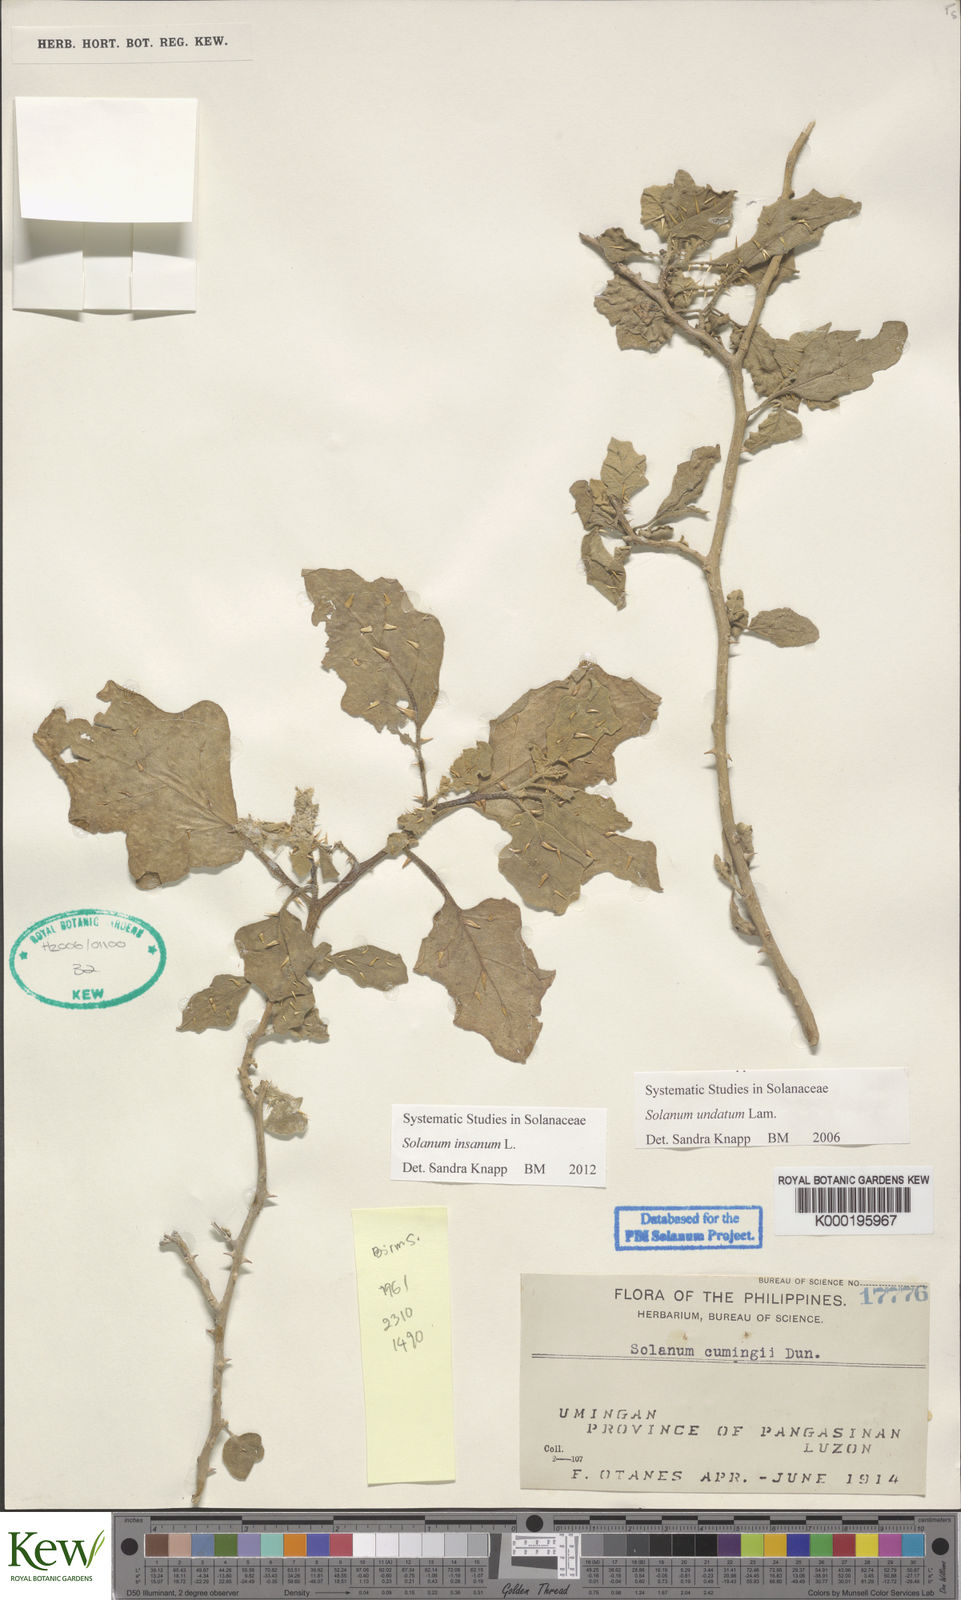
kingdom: Plantae
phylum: Tracheophyta
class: Magnoliopsida
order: Solanales
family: Solanaceae
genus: Solanum
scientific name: Solanum insanum
